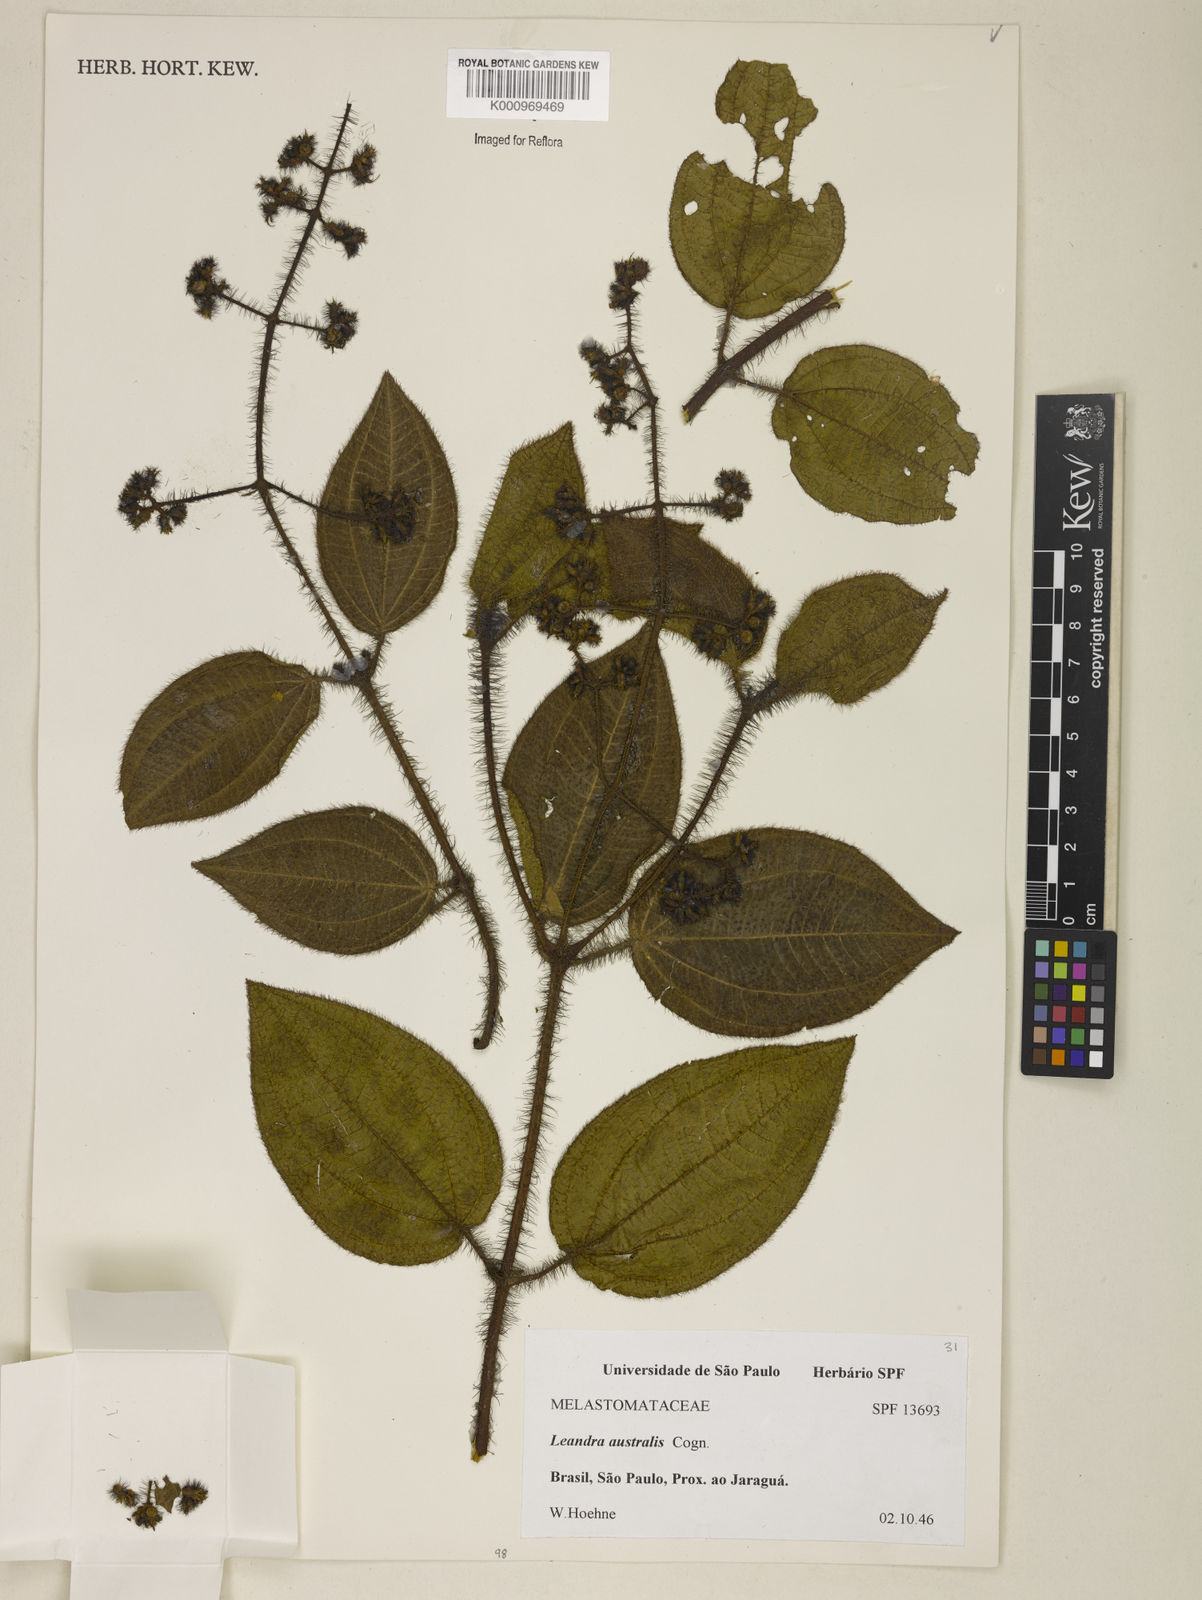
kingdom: Plantae
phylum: Tracheophyta
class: Magnoliopsida
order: Myrtales
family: Melastomataceae
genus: Miconia
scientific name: Miconia australis
